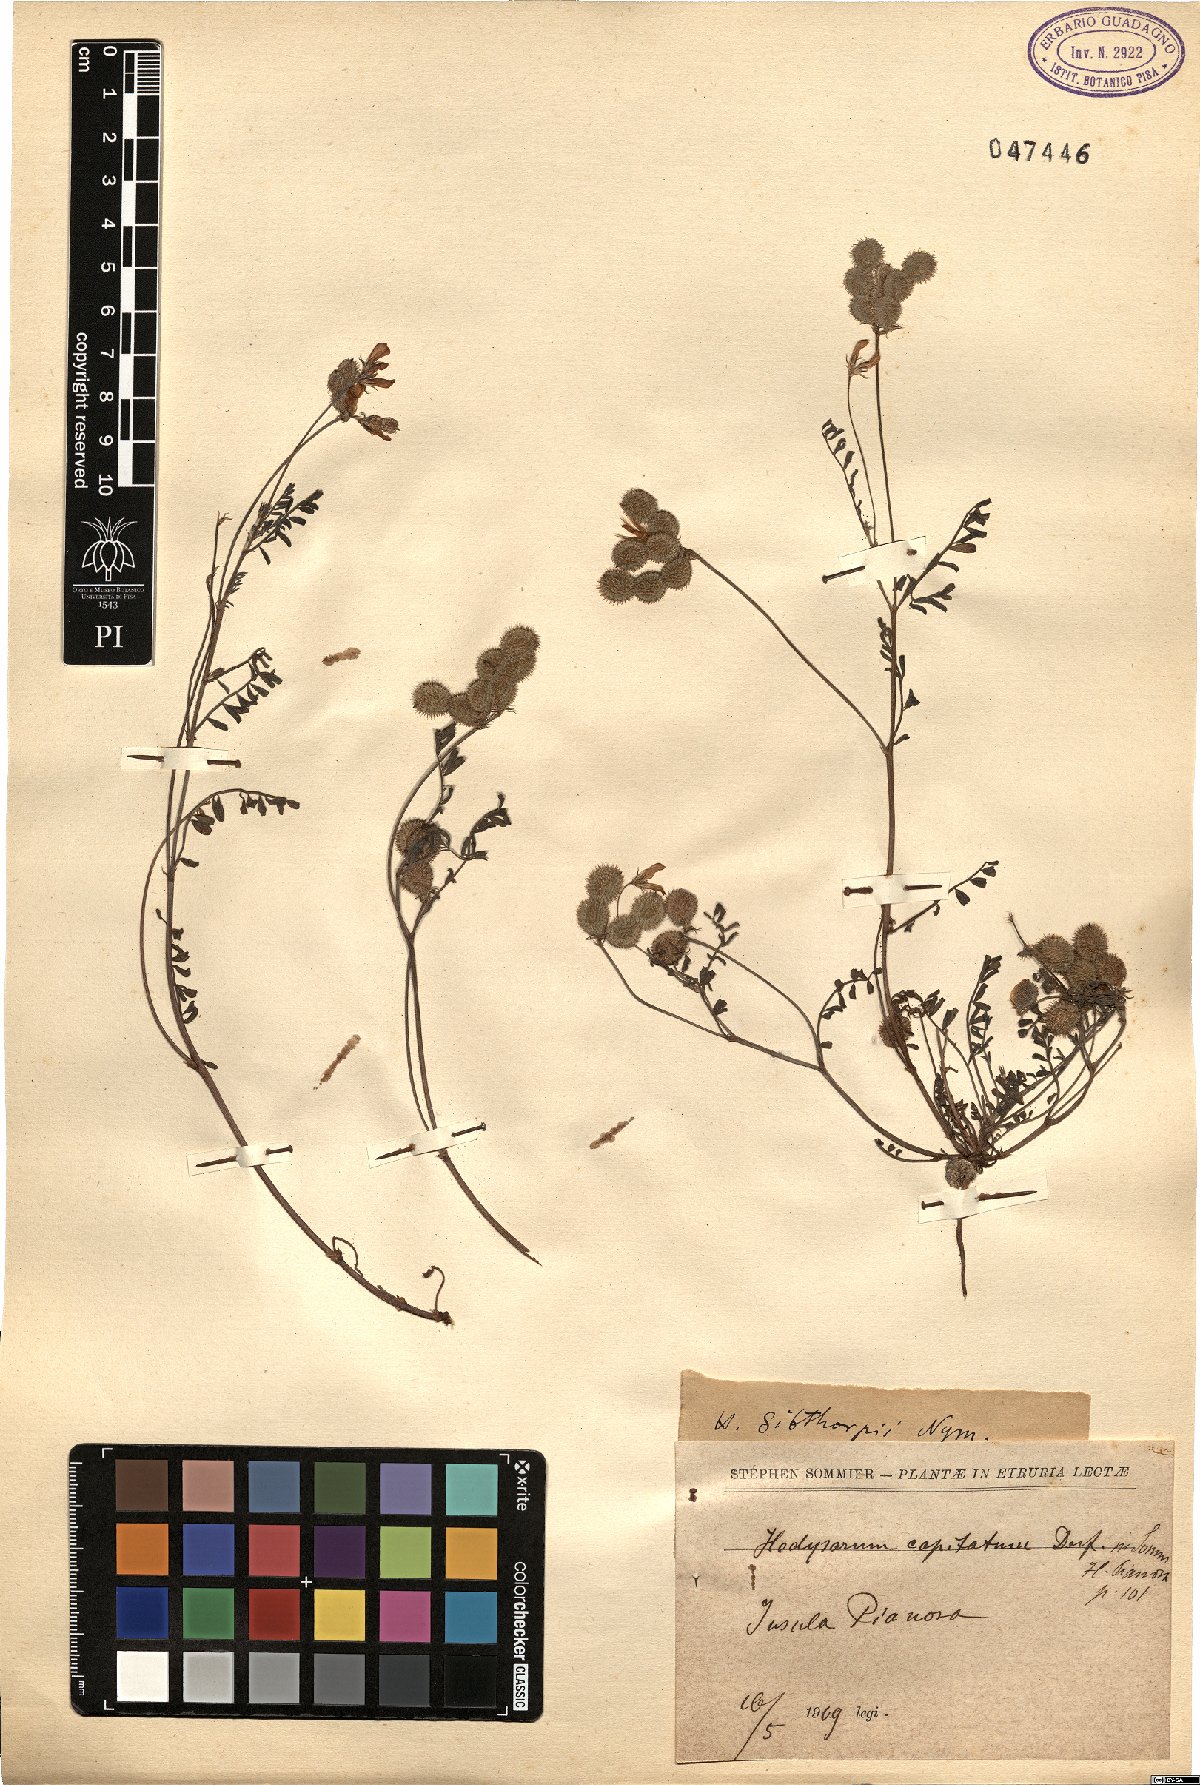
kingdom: Plantae
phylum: Tracheophyta
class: Magnoliopsida
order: Fabales
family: Fabaceae
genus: Sulla
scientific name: Sulla spinosissima
